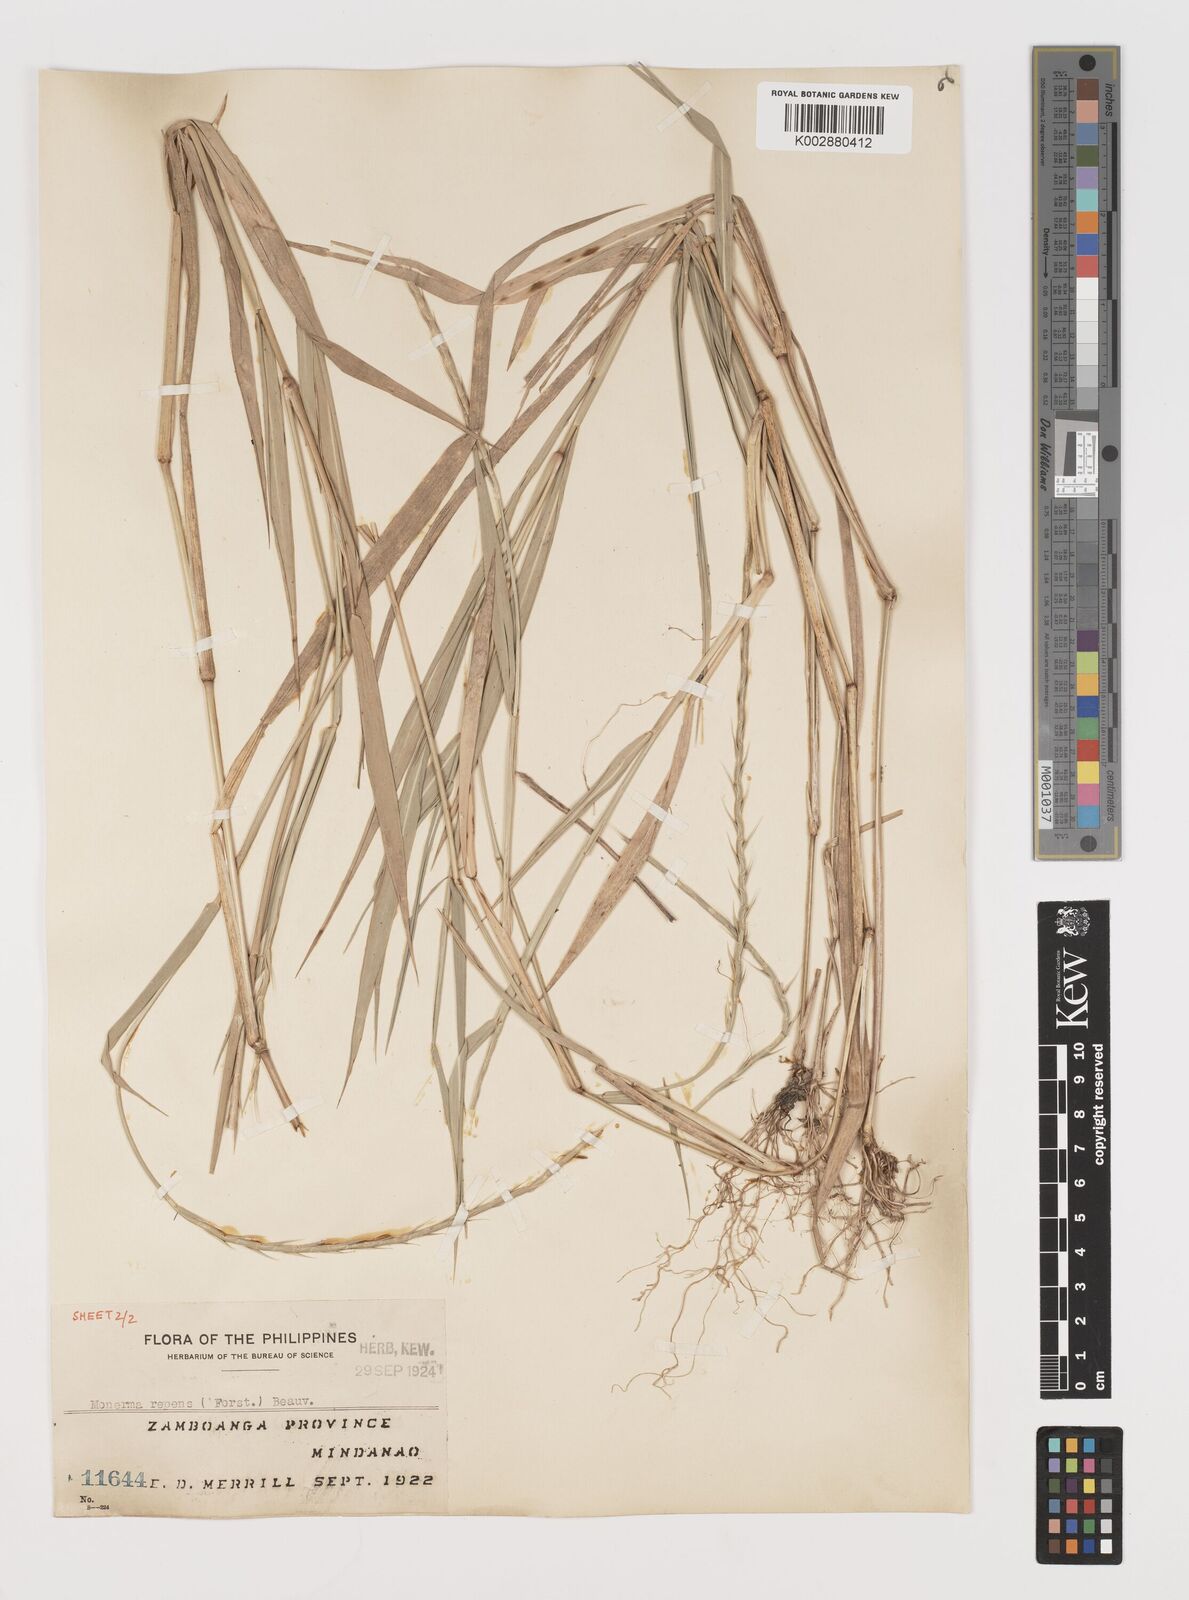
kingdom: Plantae
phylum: Tracheophyta
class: Liliopsida
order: Poales
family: Poaceae
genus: Lepturus
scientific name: Lepturus repens
